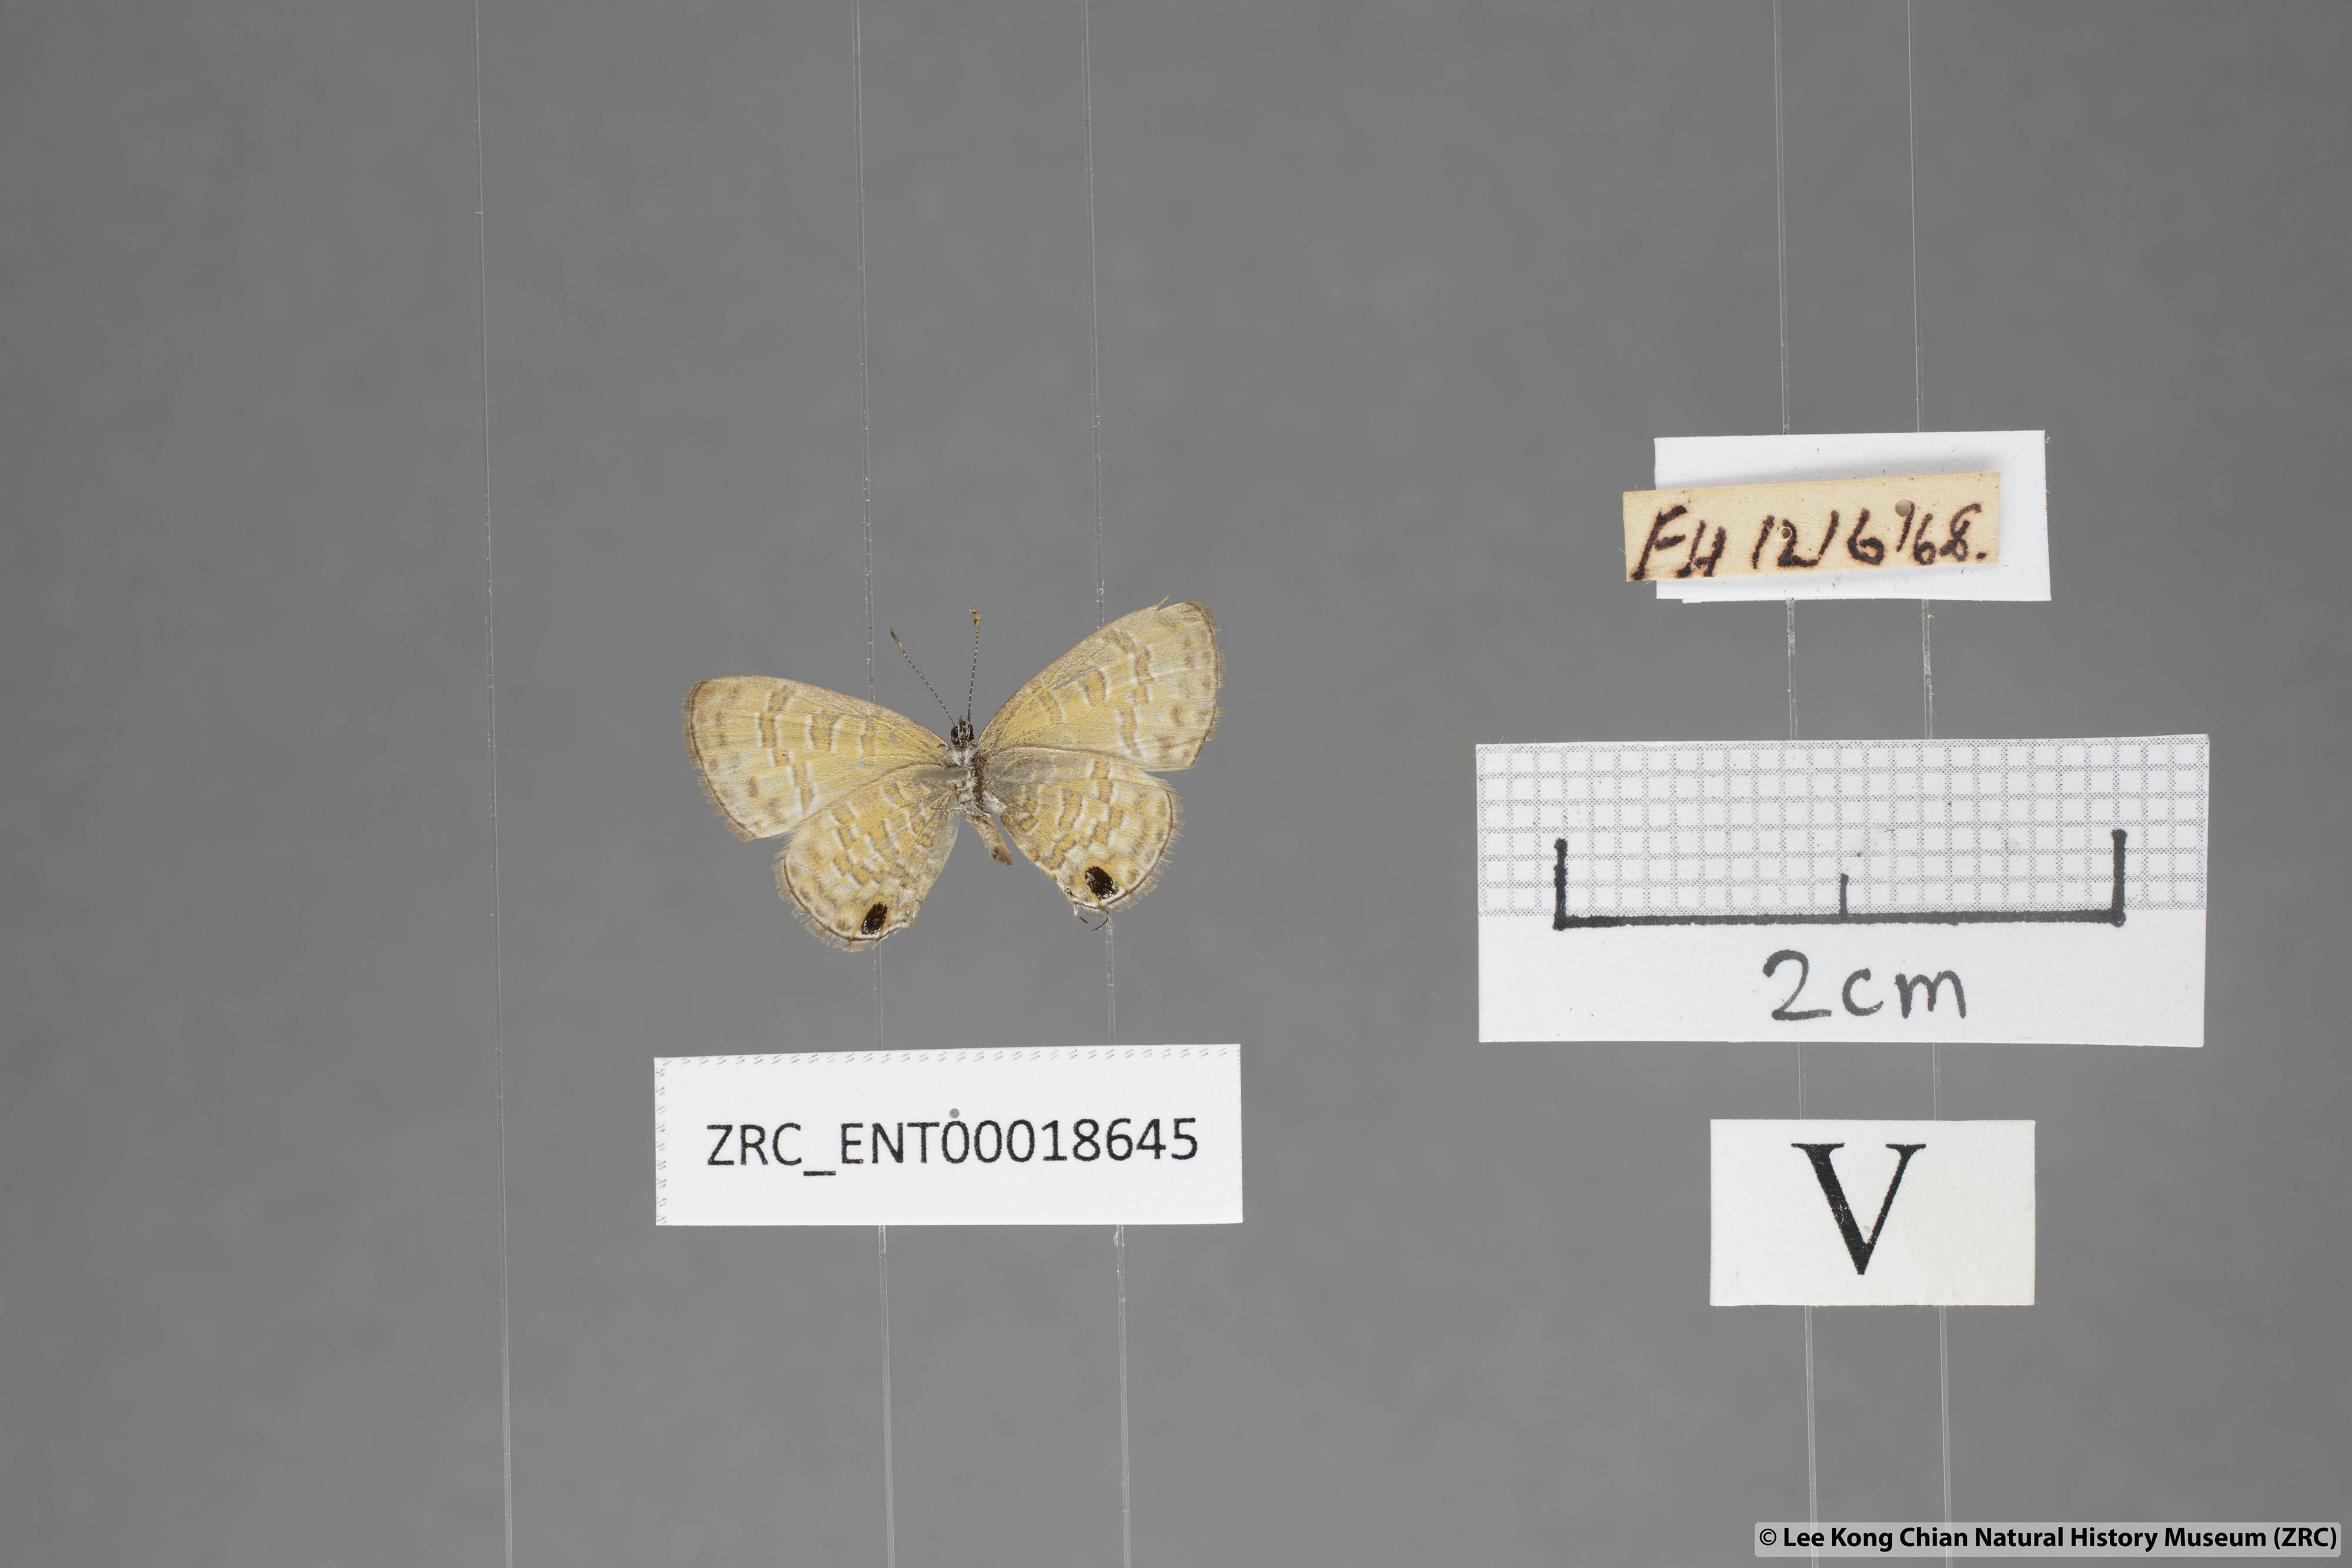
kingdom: Animalia
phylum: Arthropoda
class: Insecta
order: Lepidoptera
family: Lycaenidae
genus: Prosotas
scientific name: Prosotas nora
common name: Common line blue
